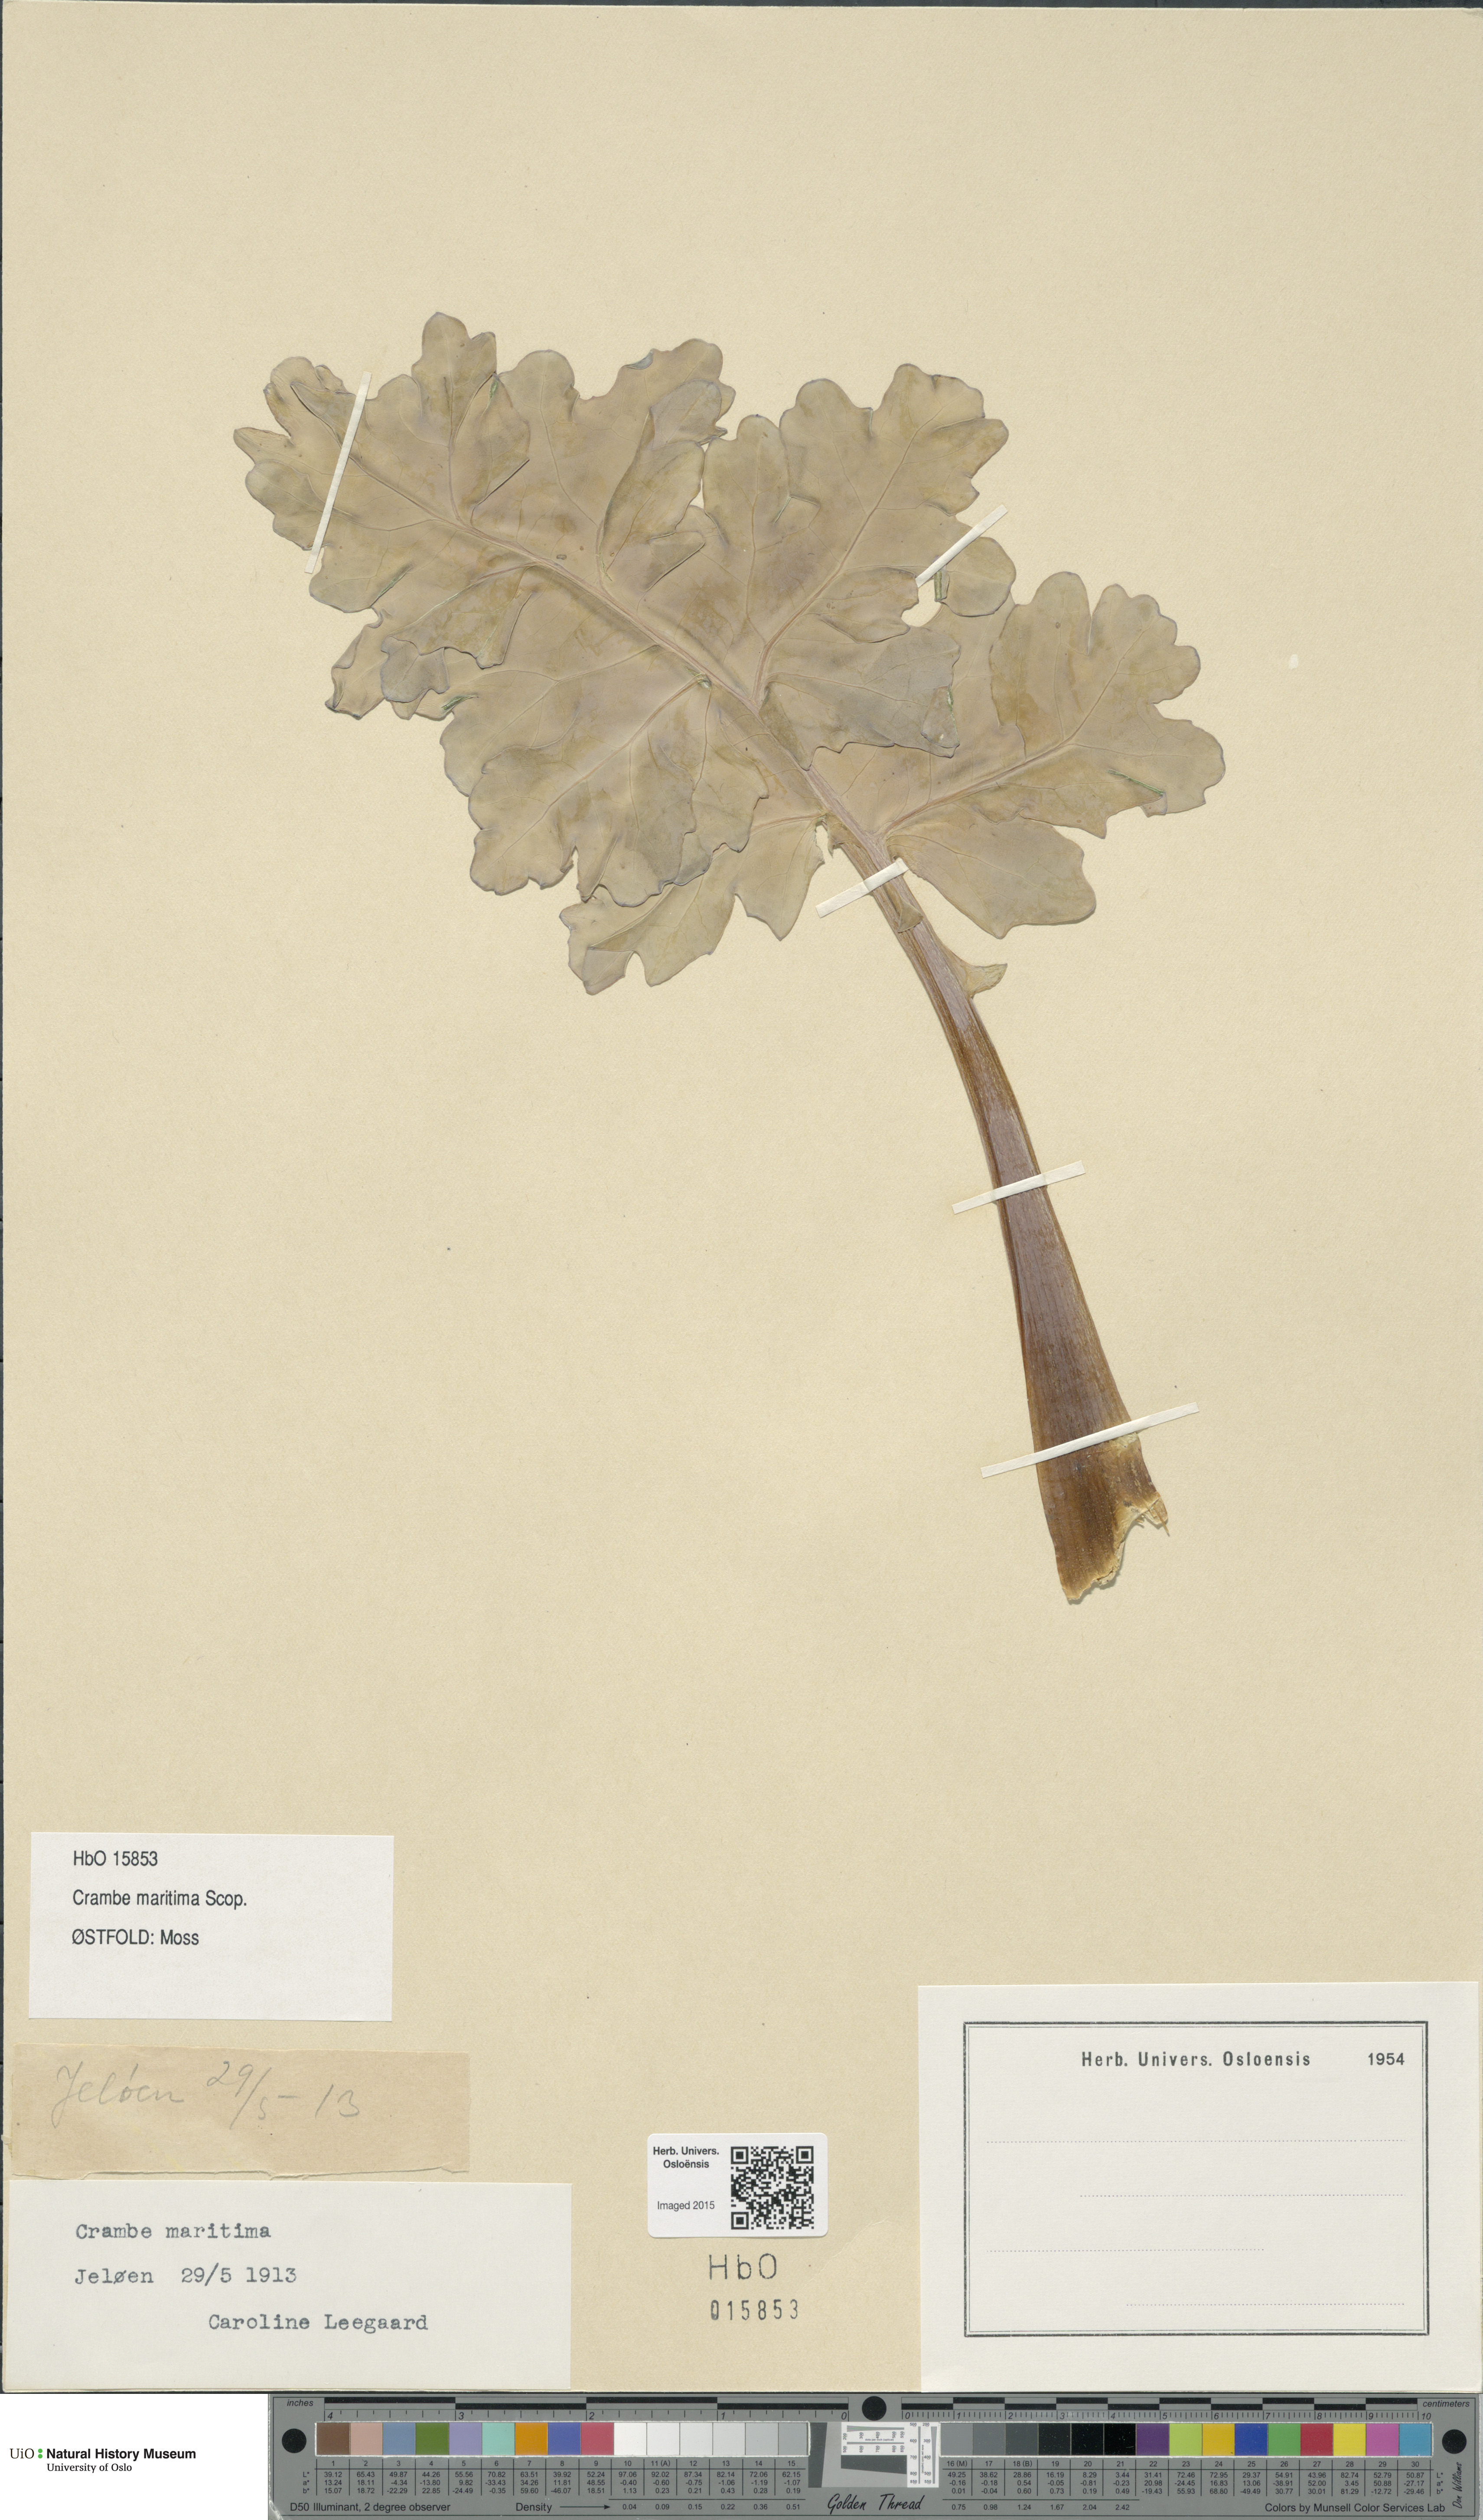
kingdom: Plantae
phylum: Tracheophyta
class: Magnoliopsida
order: Brassicales
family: Brassicaceae
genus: Crambe
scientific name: Crambe maritima
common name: Sea-kale
